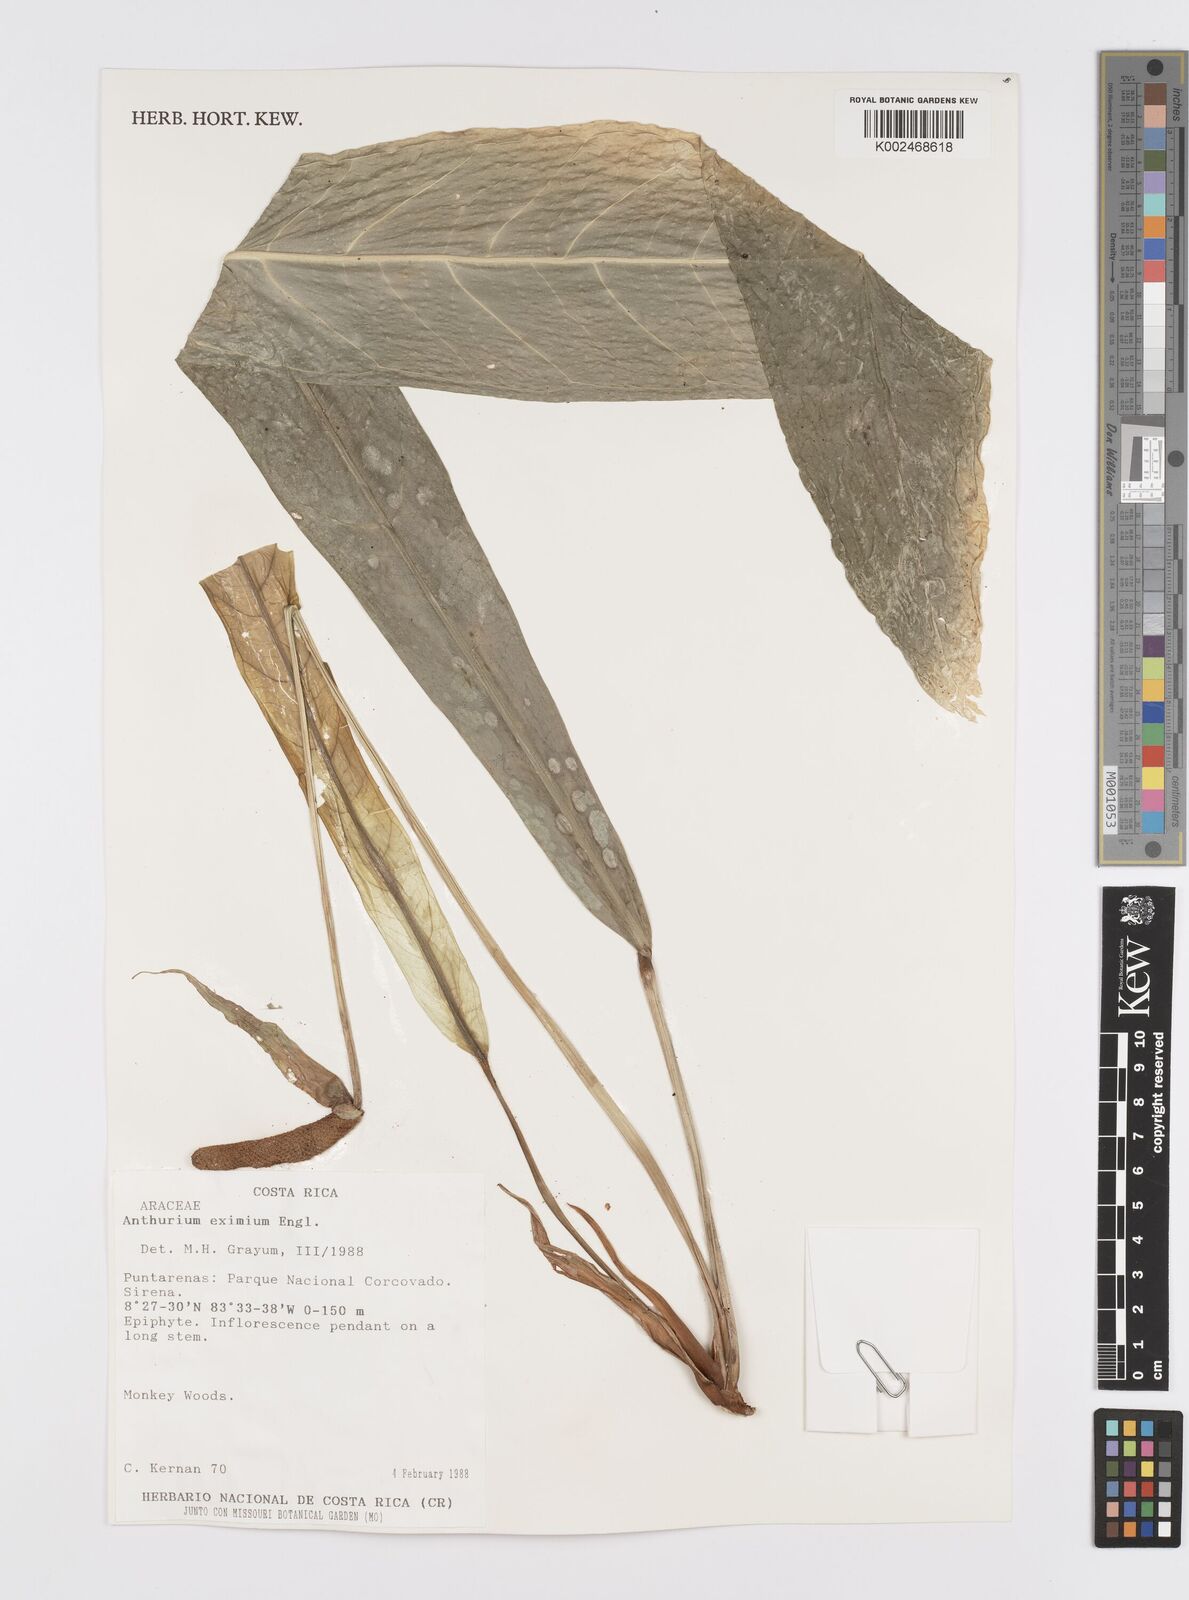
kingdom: Plantae
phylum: Tracheophyta
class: Liliopsida
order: Alismatales
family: Araceae
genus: Anthurium
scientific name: Anthurium eximium
